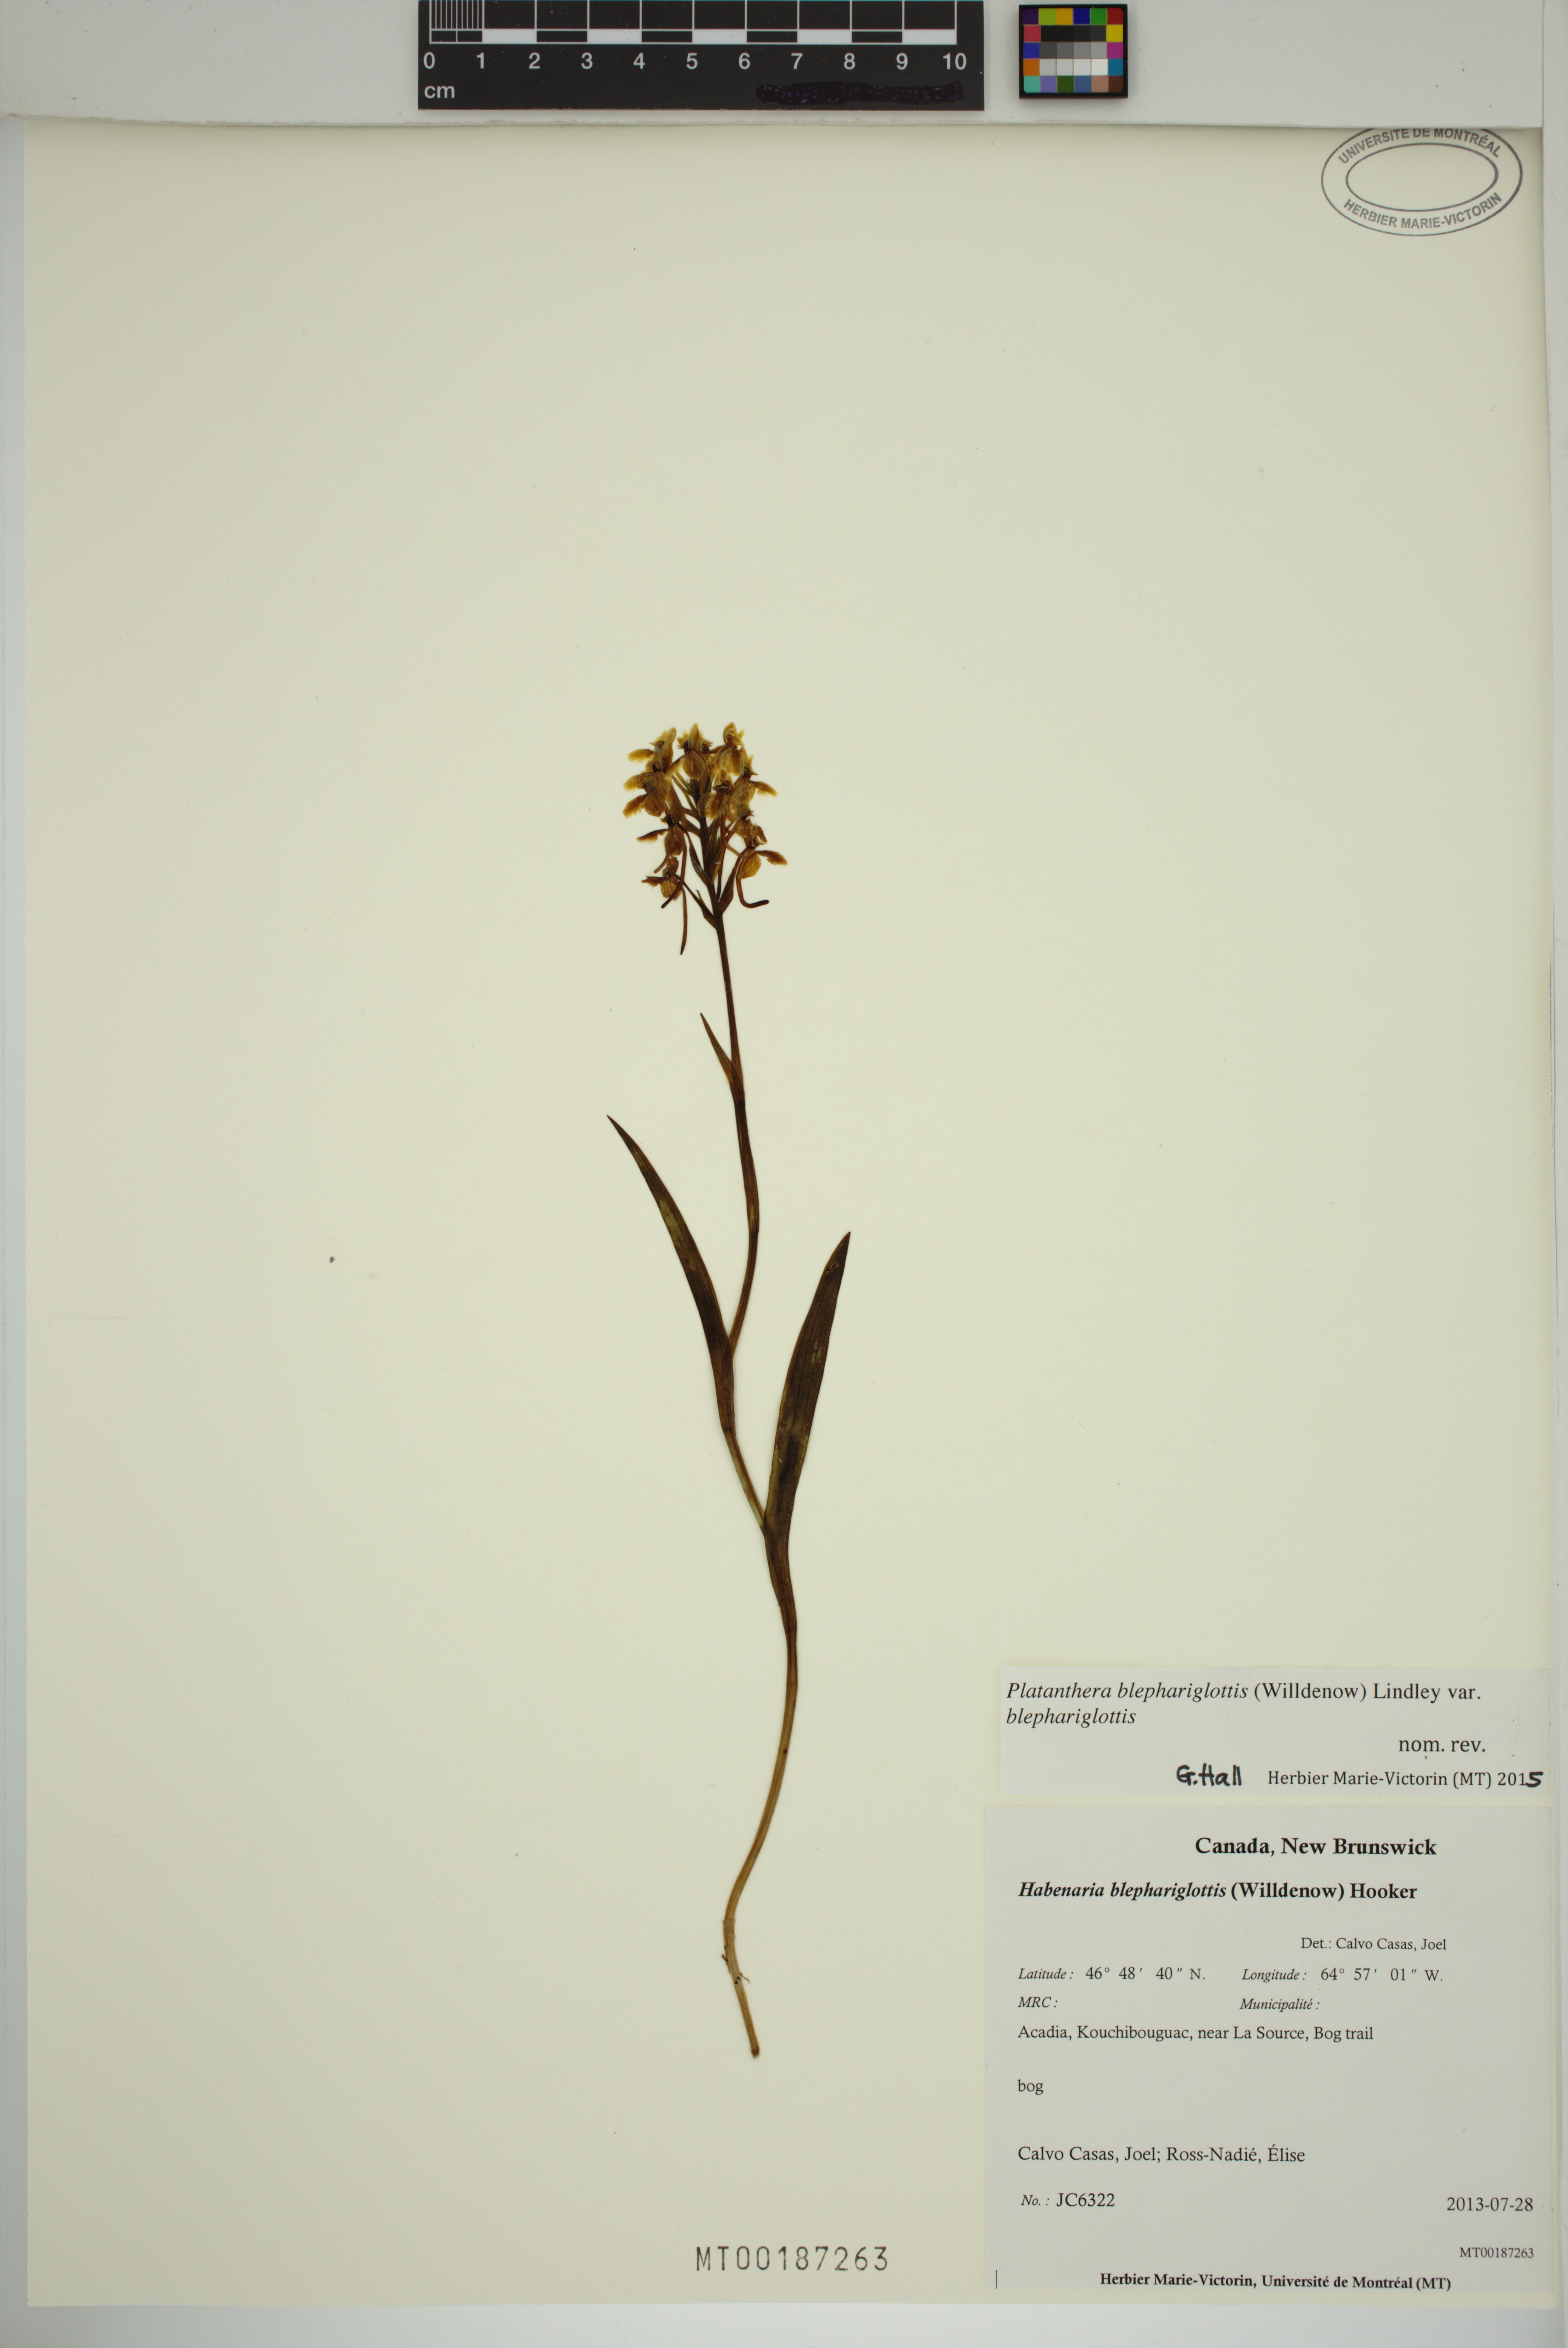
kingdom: Plantae
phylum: Tracheophyta
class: Liliopsida
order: Asparagales
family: Orchidaceae
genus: Platanthera
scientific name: Platanthera blephariglottis
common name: White fringed orchid
